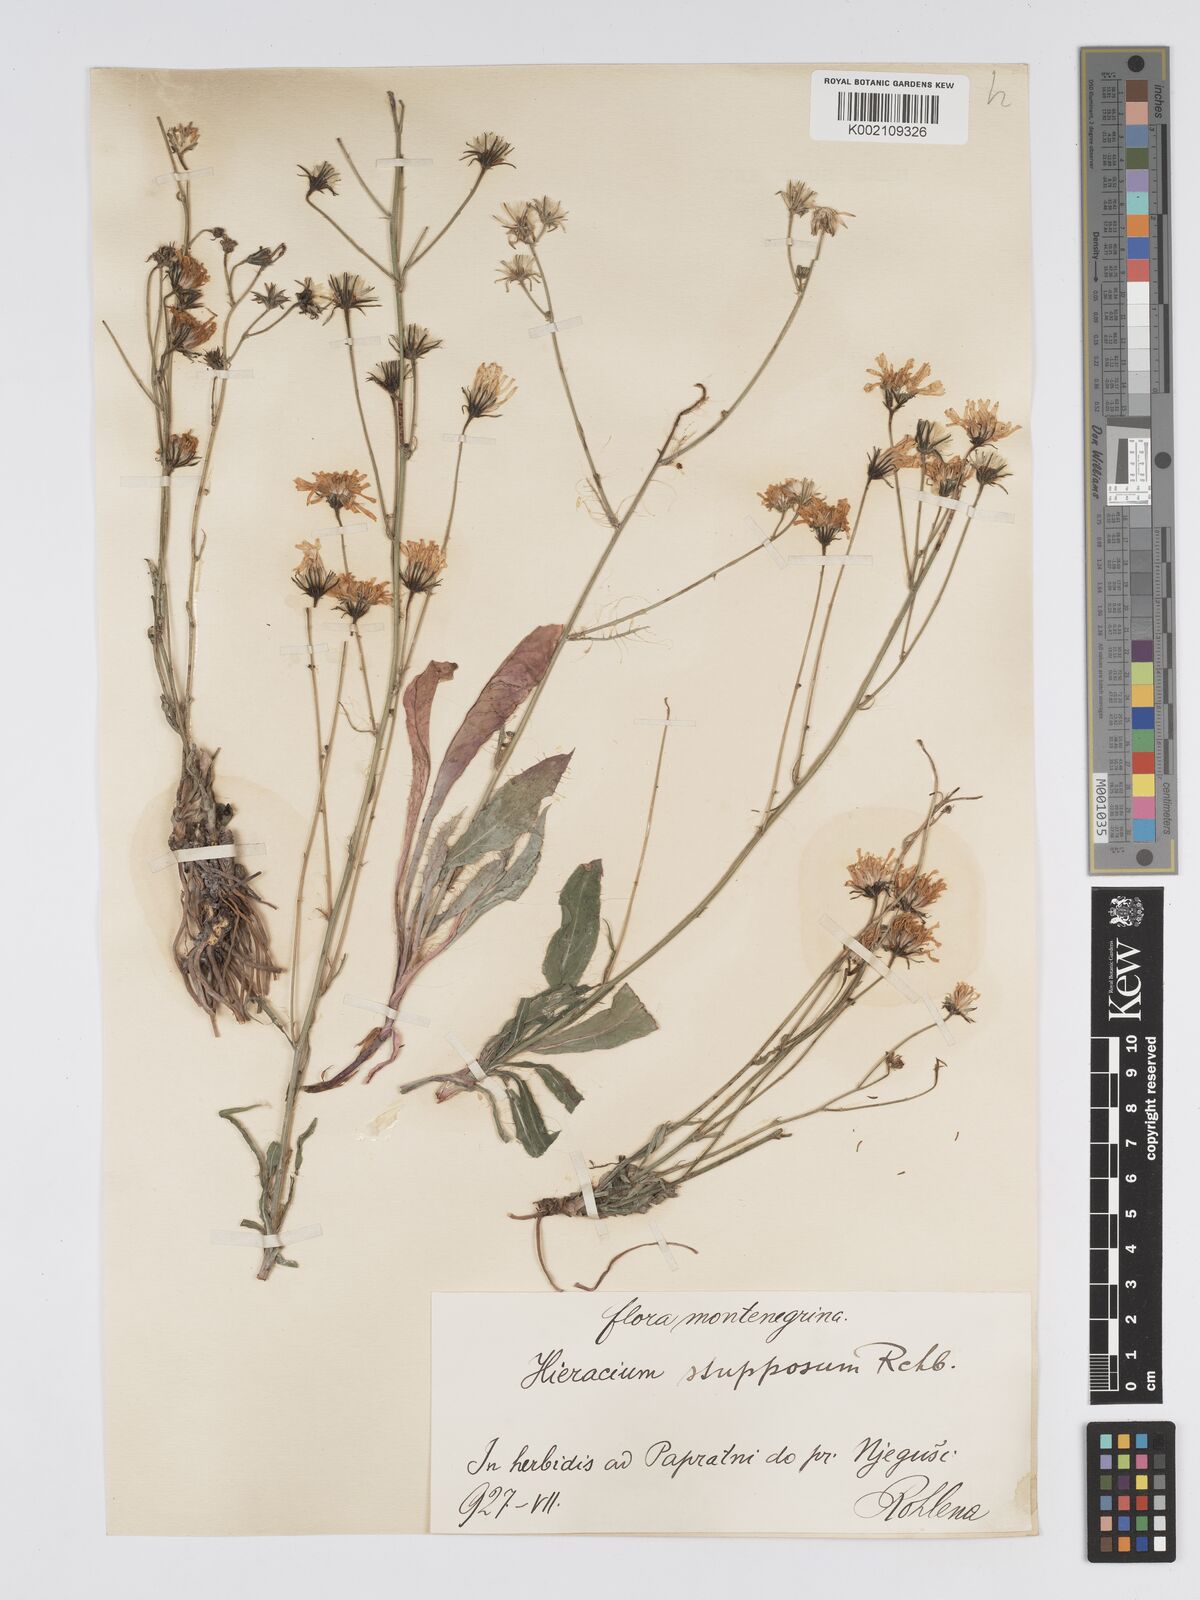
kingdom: Plantae
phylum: Tracheophyta
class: Magnoliopsida
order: Asterales
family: Asteraceae
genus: Hieracium
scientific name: Hieracium heterogynum
